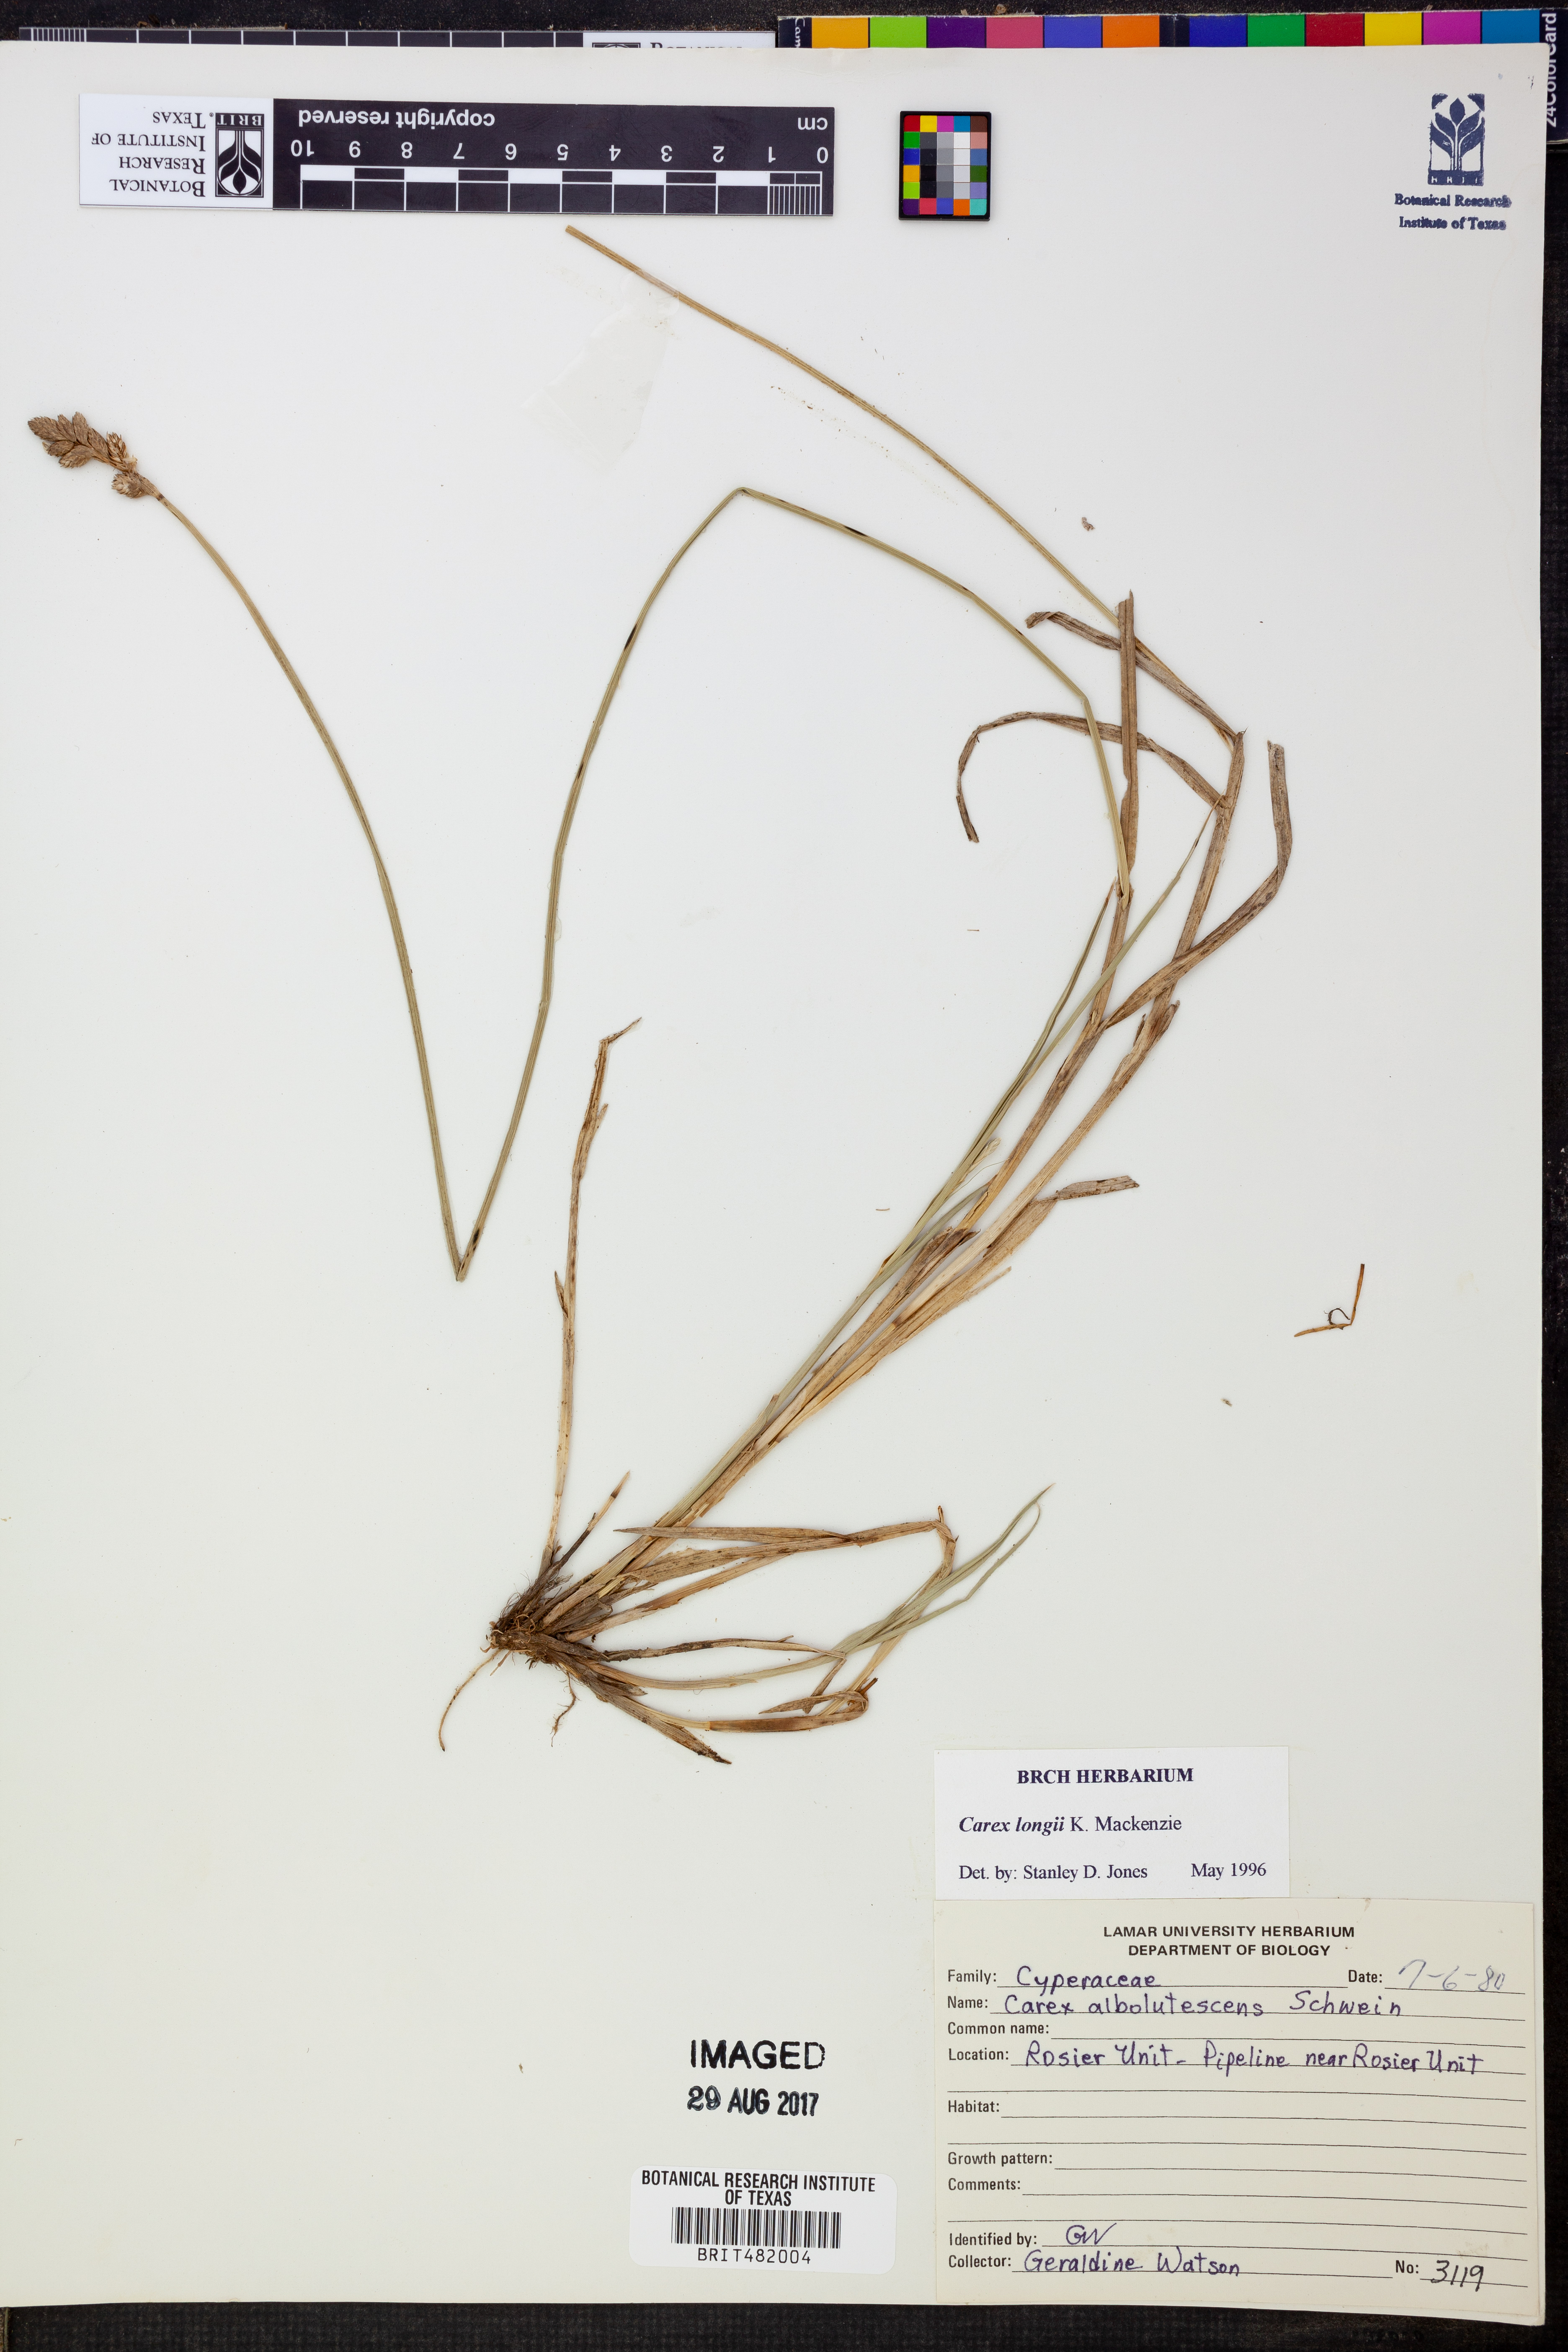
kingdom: Plantae
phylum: Tracheophyta
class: Liliopsida
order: Poales
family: Cyperaceae
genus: Carex
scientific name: Carex longii
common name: Long's sedge
